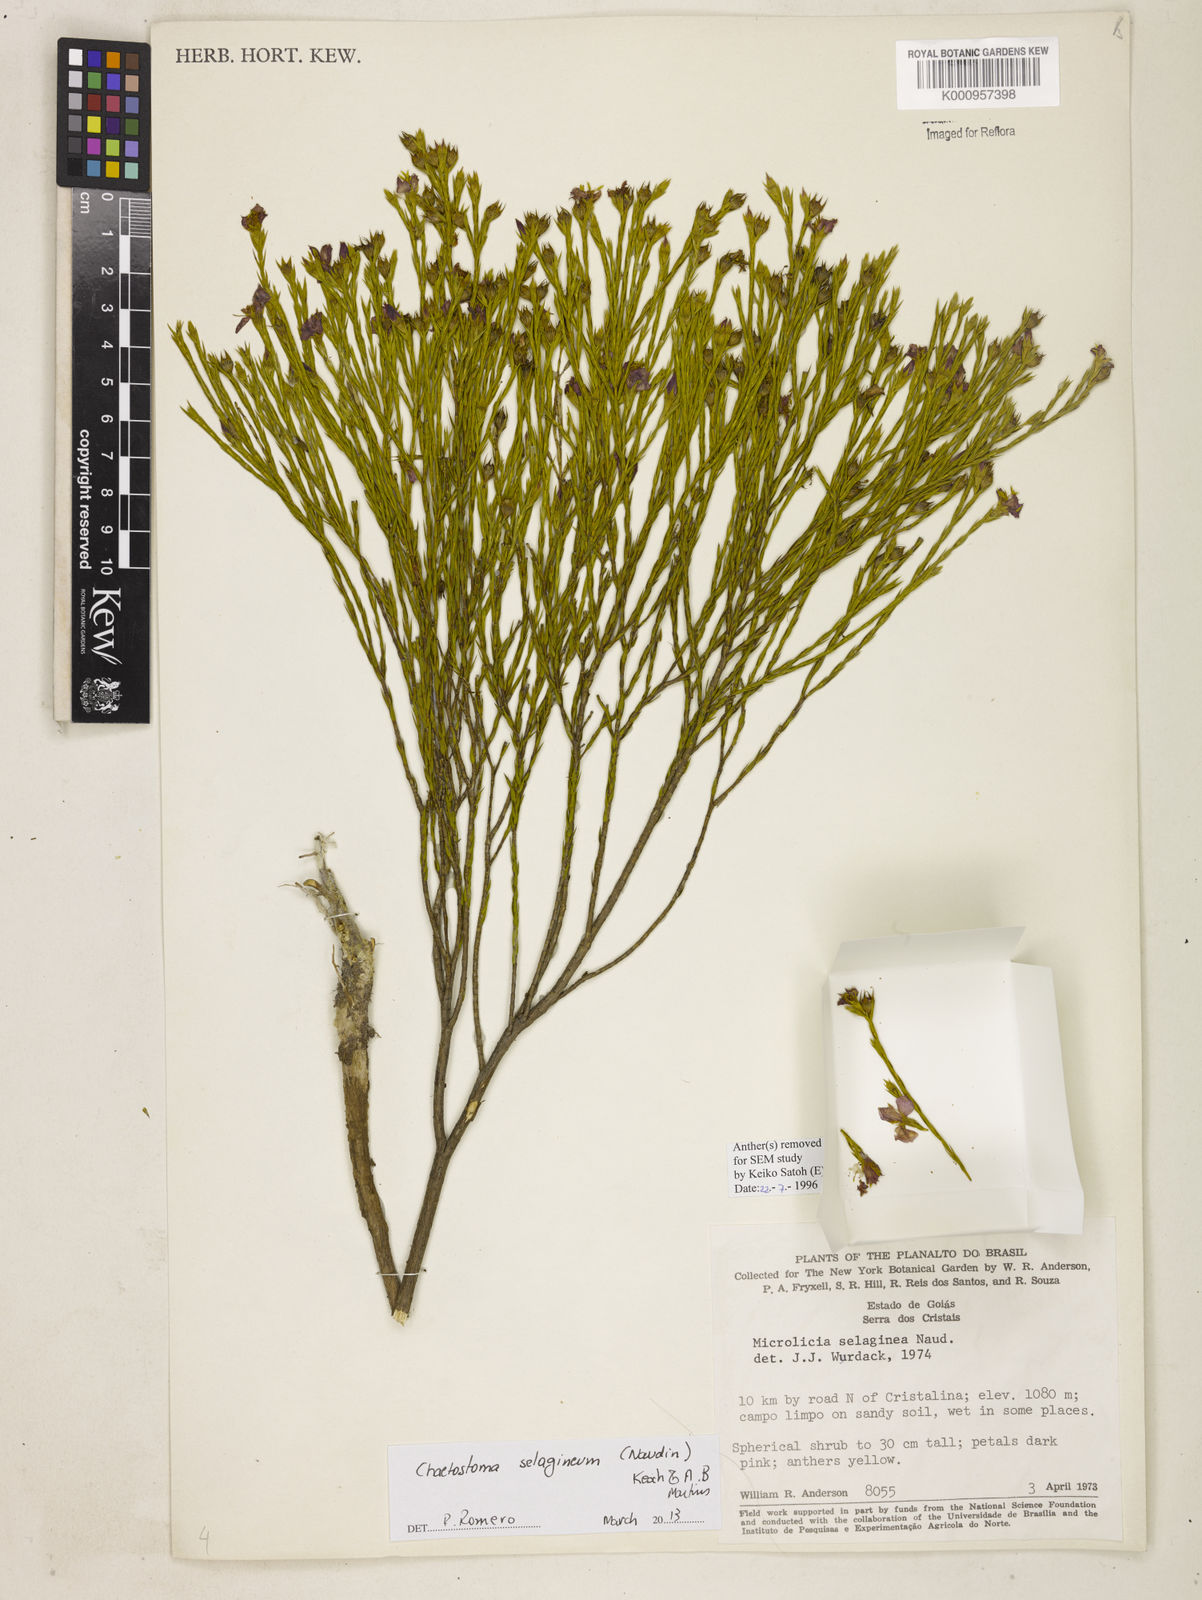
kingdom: Plantae
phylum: Tracheophyta
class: Magnoliopsida
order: Myrtales
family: Melastomataceae
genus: Microlicia
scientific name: Microlicia
